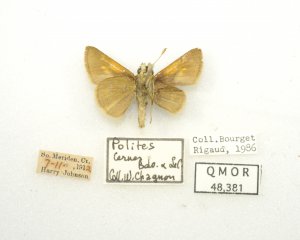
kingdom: Animalia
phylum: Arthropoda
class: Insecta
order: Lepidoptera
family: Hesperiidae
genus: Polites
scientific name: Polites themistocles
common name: Tawny-edged Skipper
